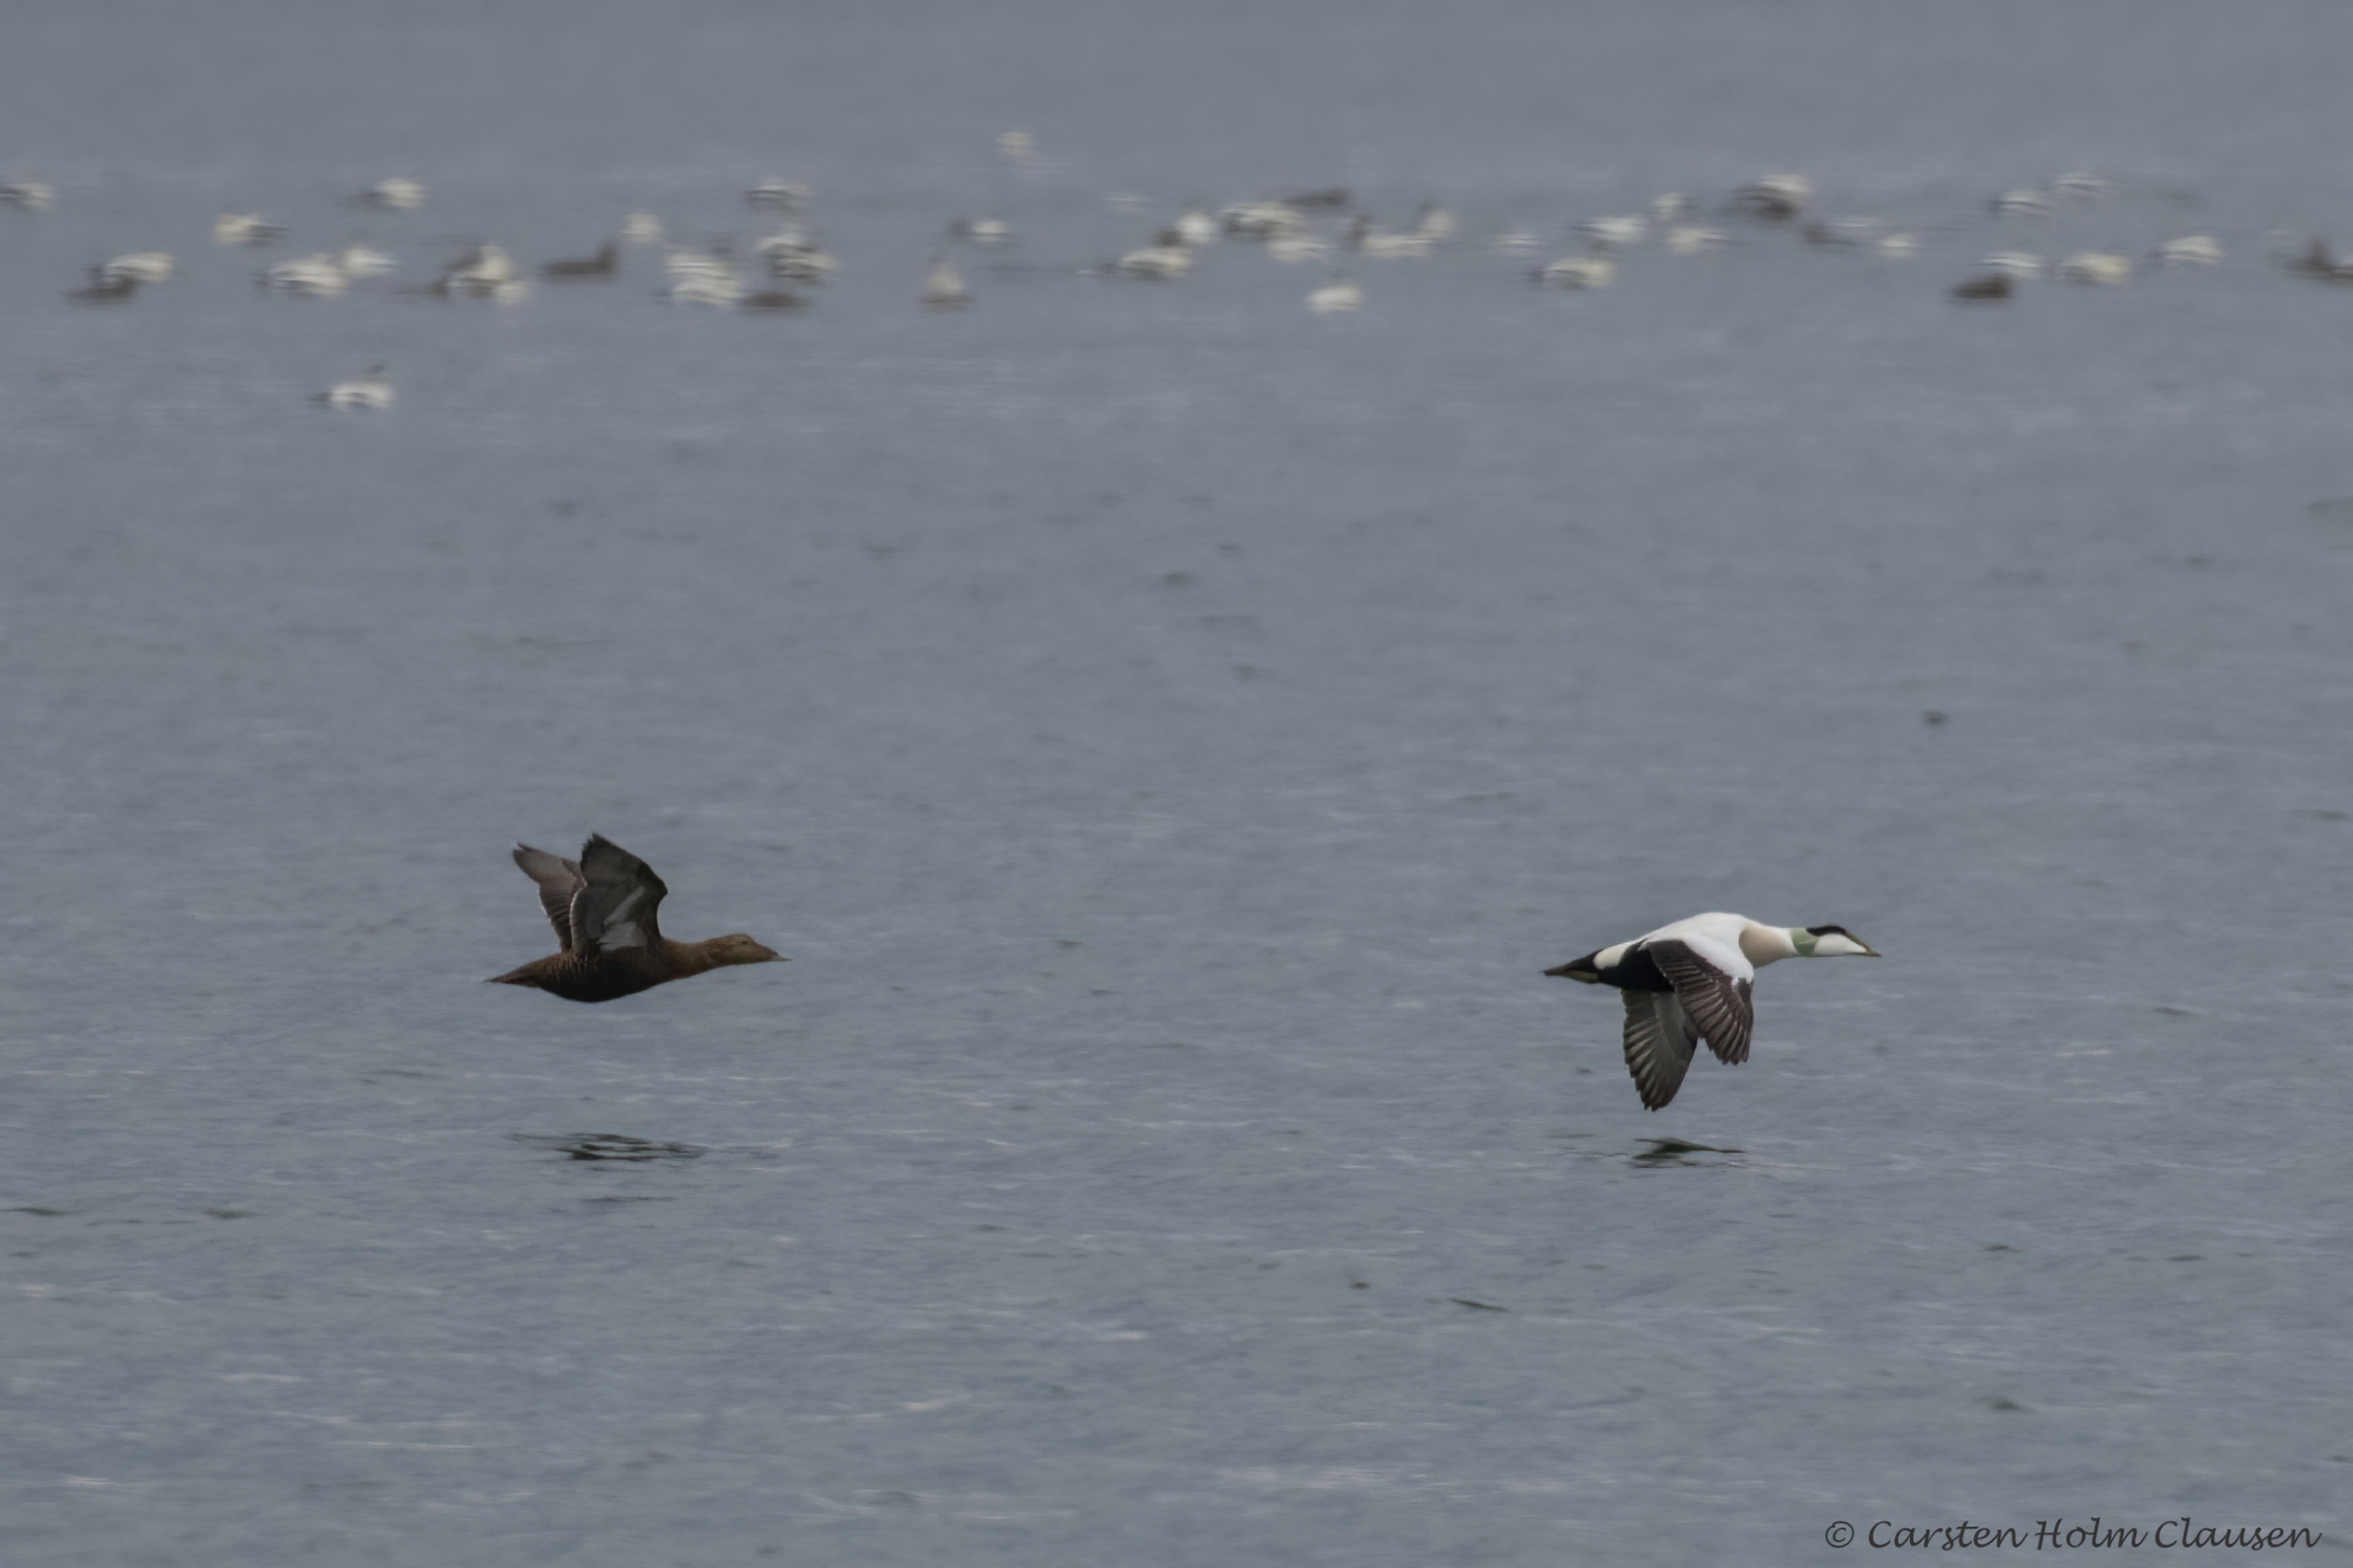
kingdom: Animalia
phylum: Chordata
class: Aves
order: Anseriformes
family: Anatidae
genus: Somateria
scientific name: Somateria mollissima
